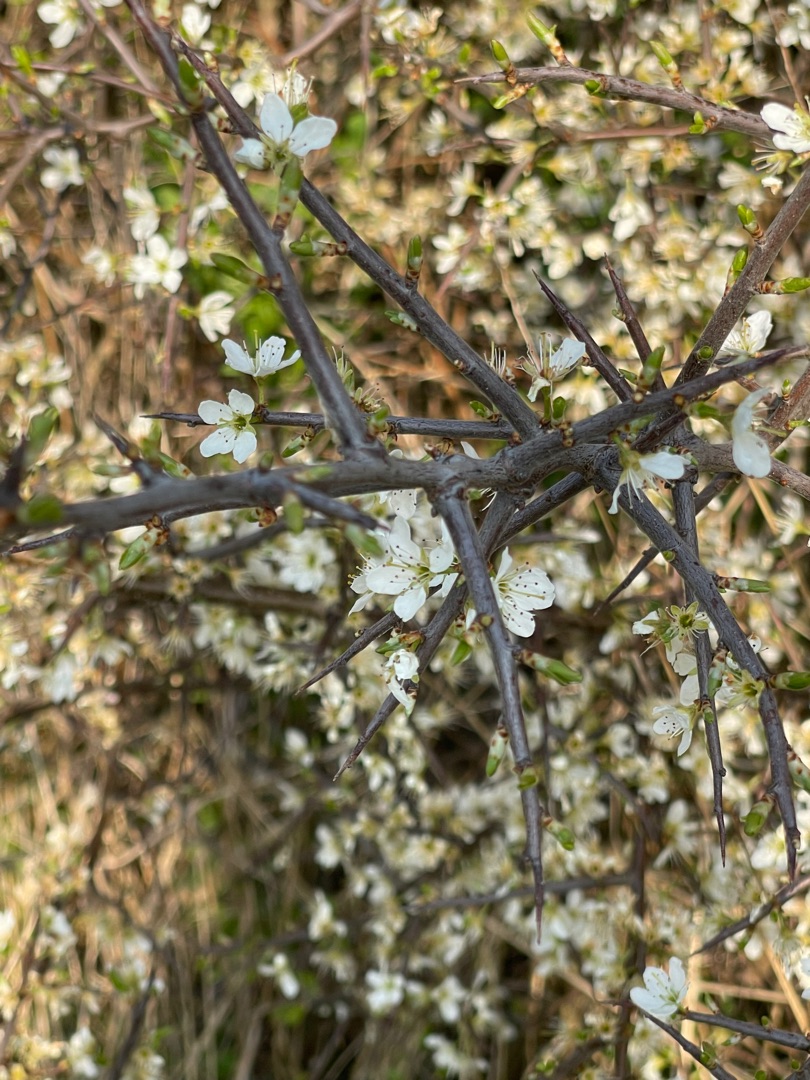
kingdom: Plantae
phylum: Tracheophyta
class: Magnoliopsida
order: Rosales
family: Rosaceae
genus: Prunus
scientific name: Prunus spinosa
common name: Slåen
